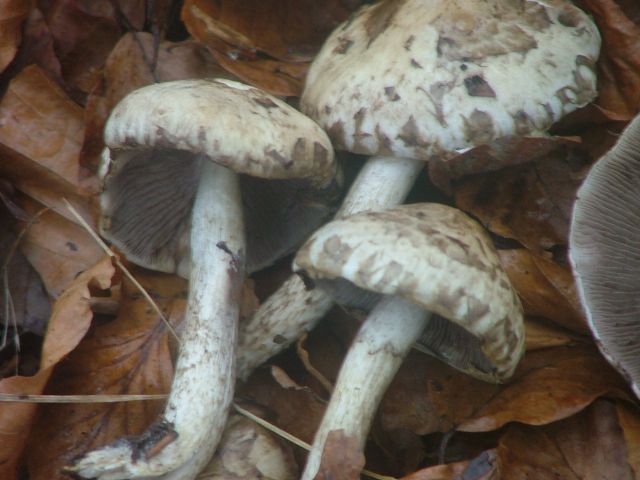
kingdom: Fungi
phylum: Basidiomycota
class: Agaricomycetes
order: Agaricales
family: Psathyrellaceae
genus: Psathyrella
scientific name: Psathyrella cotonea
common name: skællet mørkhat
